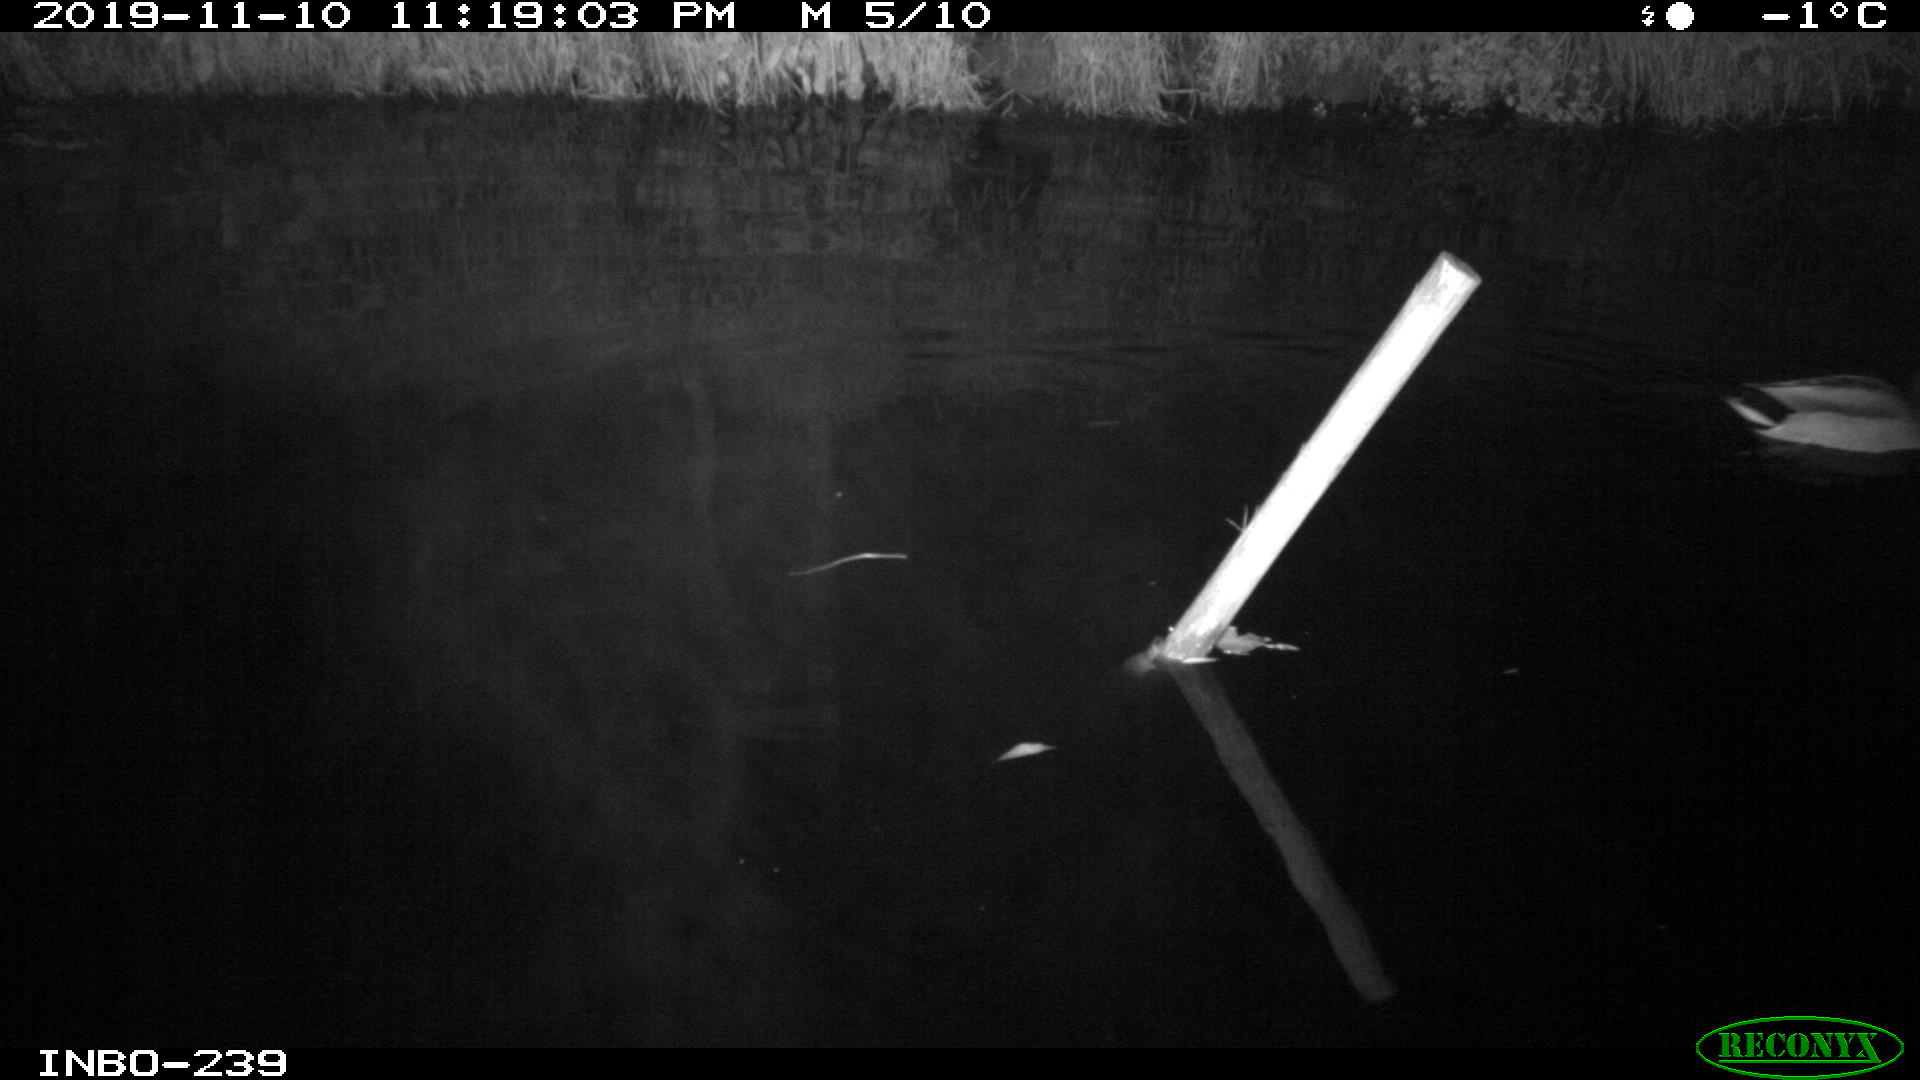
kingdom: Animalia
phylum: Chordata
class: Aves
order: Anseriformes
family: Anatidae
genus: Anas
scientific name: Anas platyrhynchos
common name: Mallard
